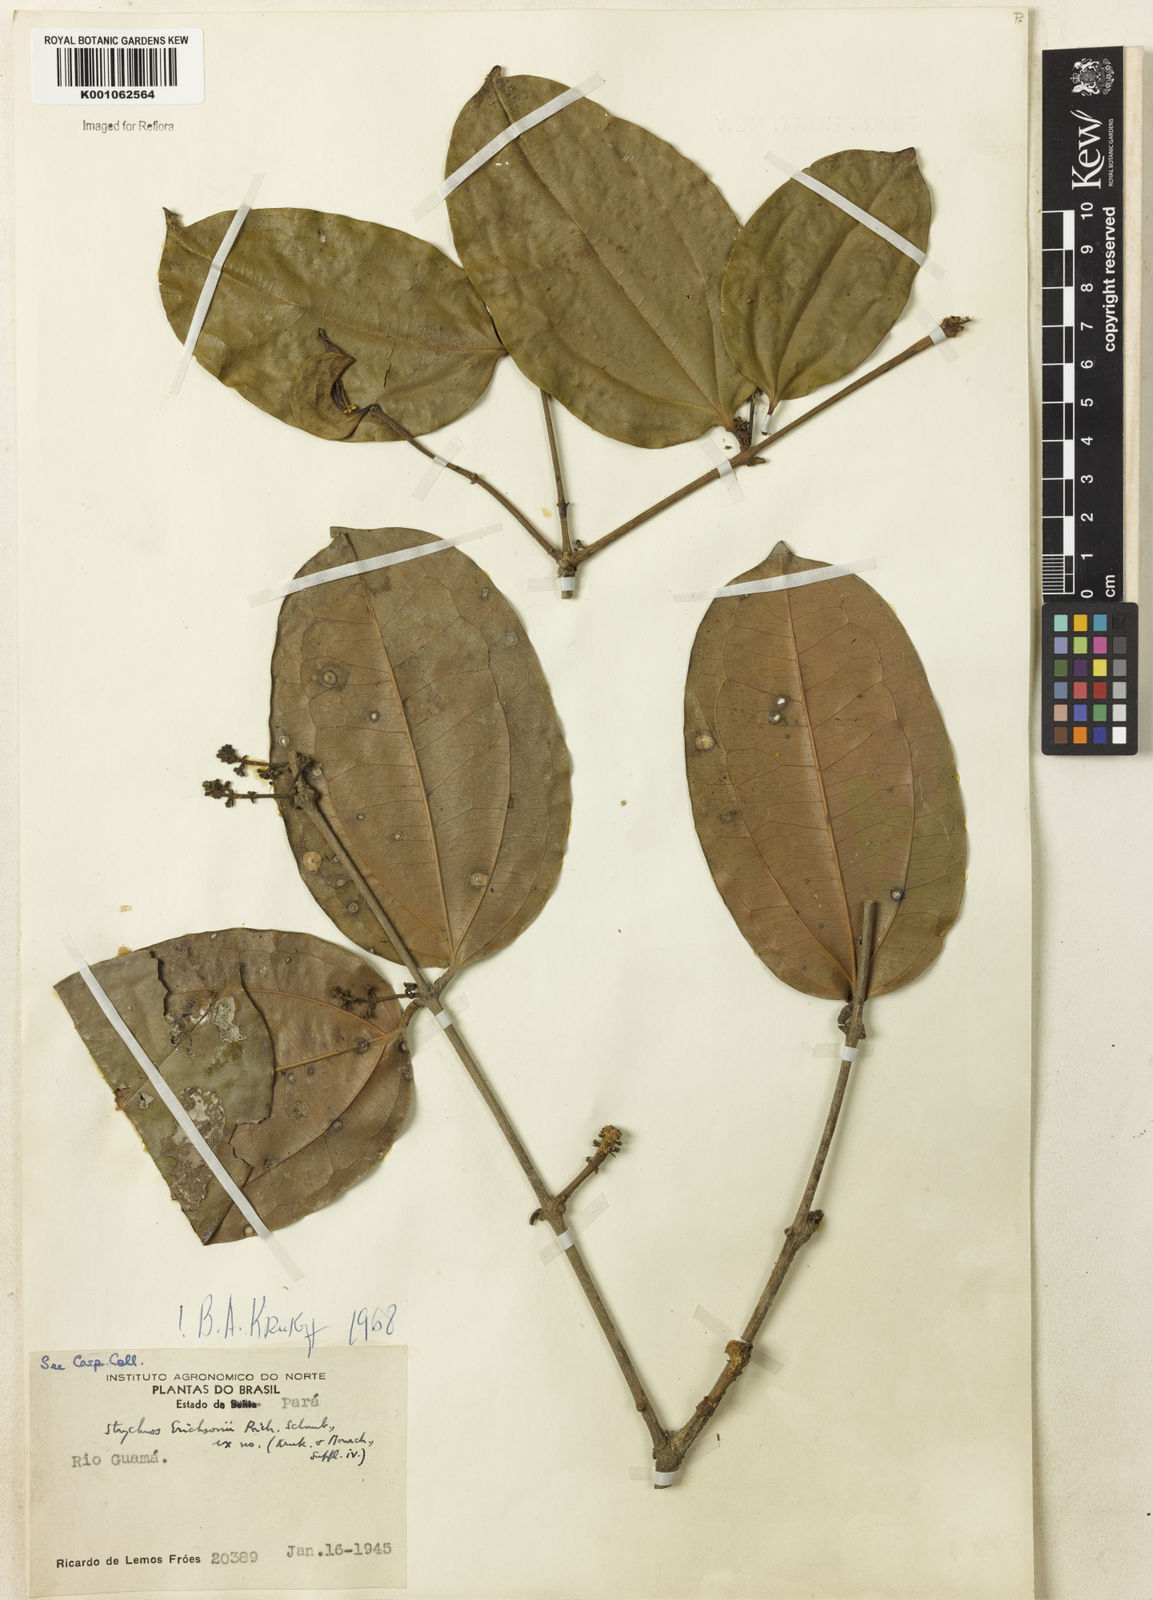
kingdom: Plantae
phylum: Tracheophyta
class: Magnoliopsida
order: Gentianales
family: Loganiaceae
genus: Strychnos
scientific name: Strychnos erichsonii
